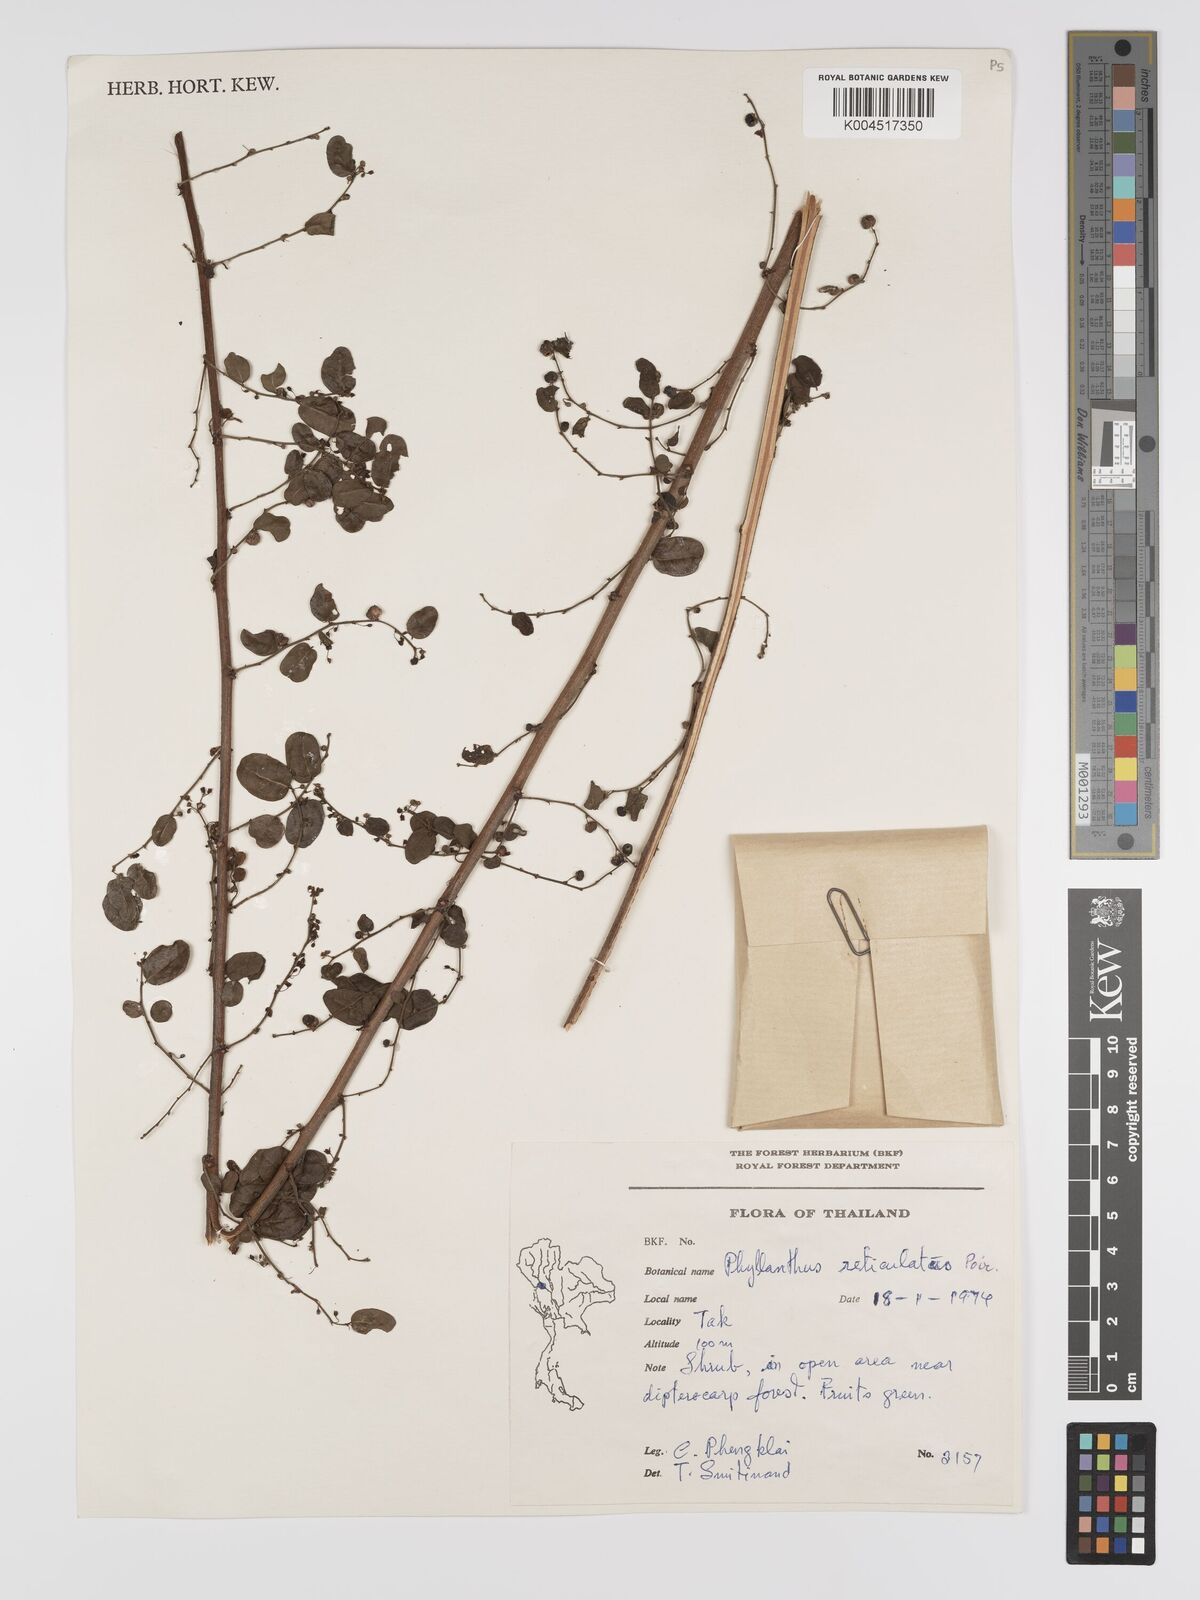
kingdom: Plantae
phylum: Tracheophyta
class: Magnoliopsida
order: Malpighiales
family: Phyllanthaceae
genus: Phyllanthus
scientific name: Phyllanthus reticulatus
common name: Potato bush
